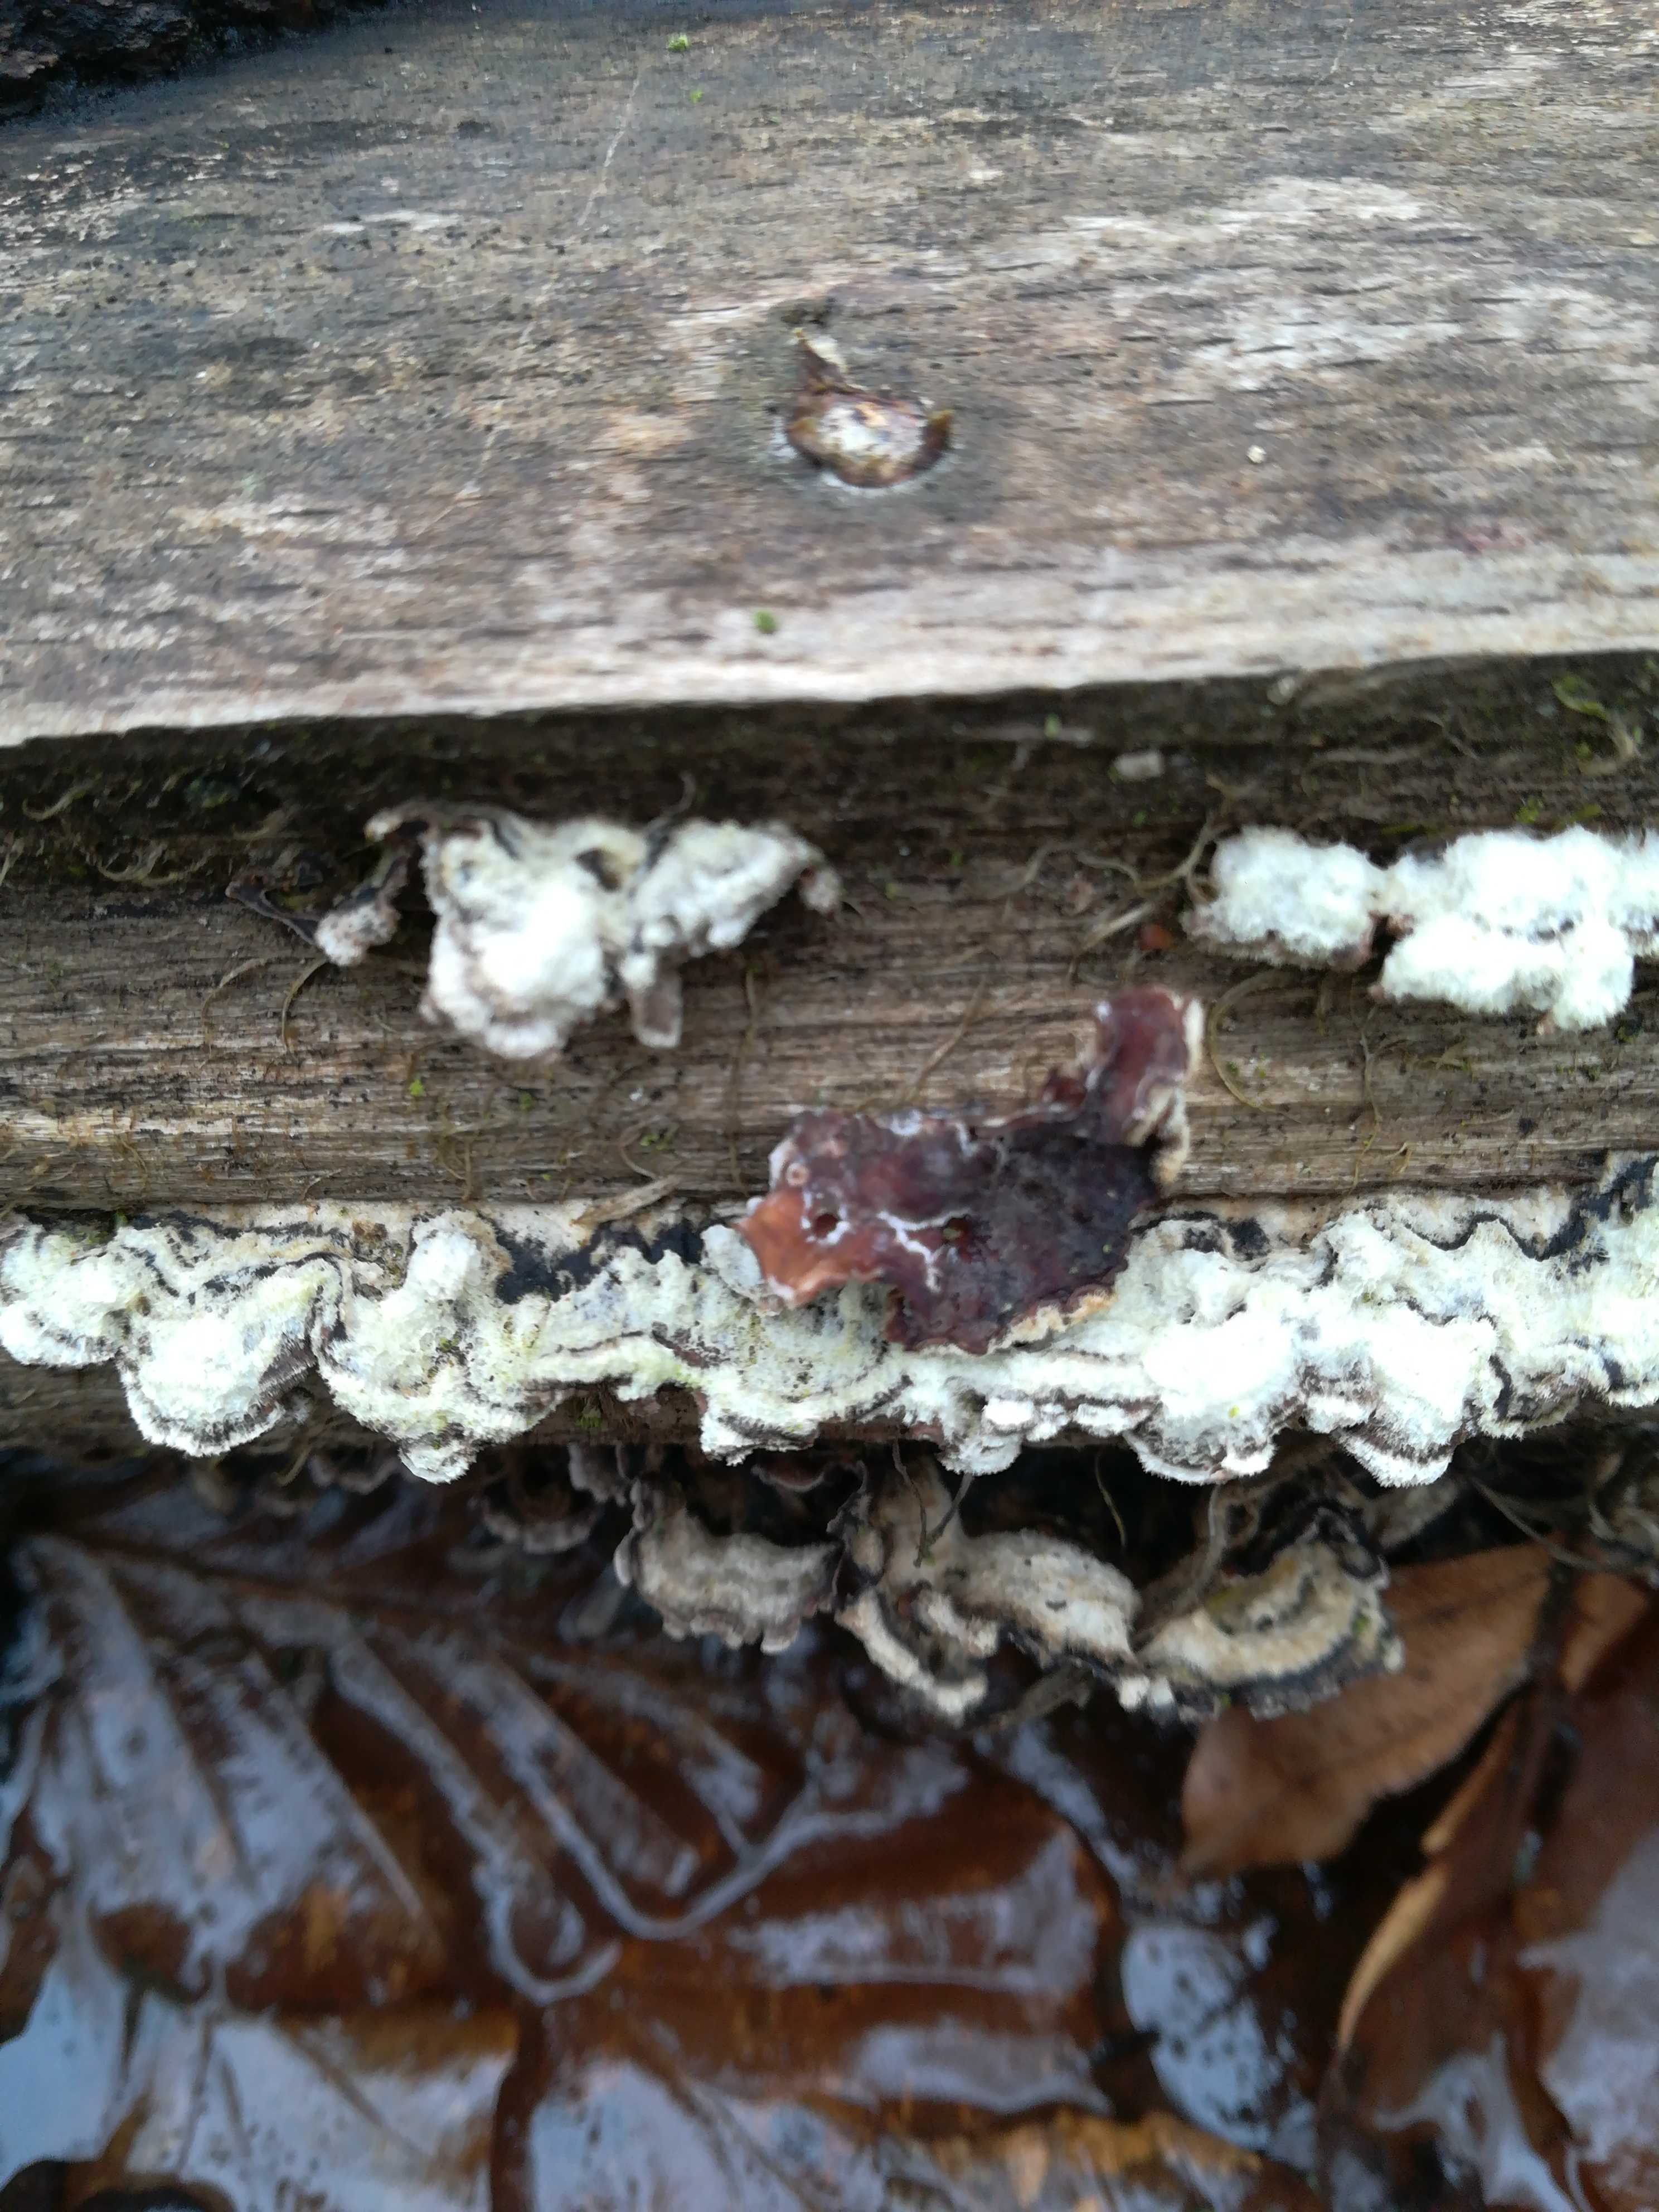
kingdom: Fungi
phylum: Basidiomycota
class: Agaricomycetes
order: Russulales
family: Stereaceae
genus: Stereum
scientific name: Stereum hirsutum
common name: håret lædersvamp
